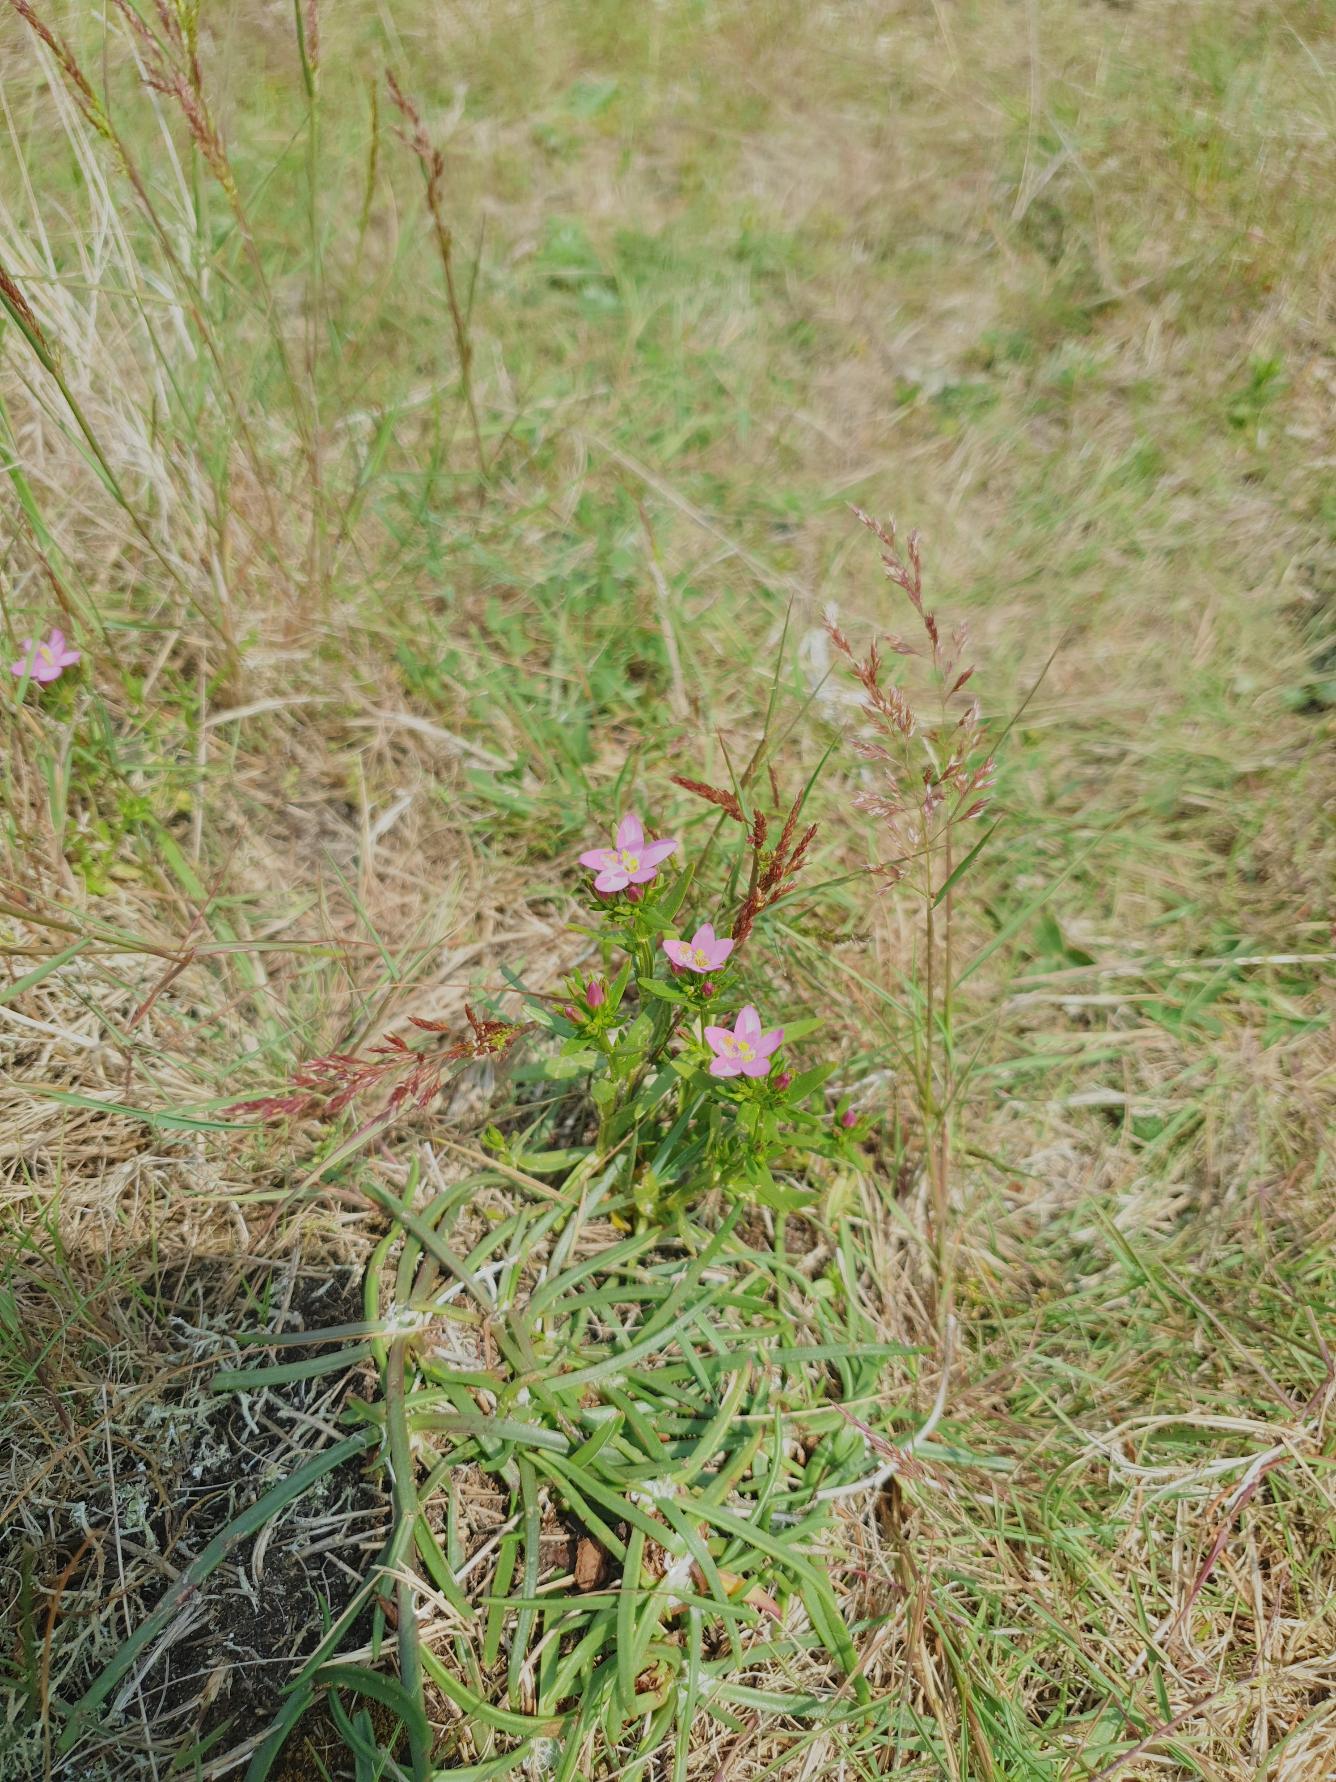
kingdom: Plantae
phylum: Tracheophyta
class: Magnoliopsida
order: Gentianales
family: Gentianaceae
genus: Centaurium
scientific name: Centaurium littorale
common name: Strand-tusindgylden
